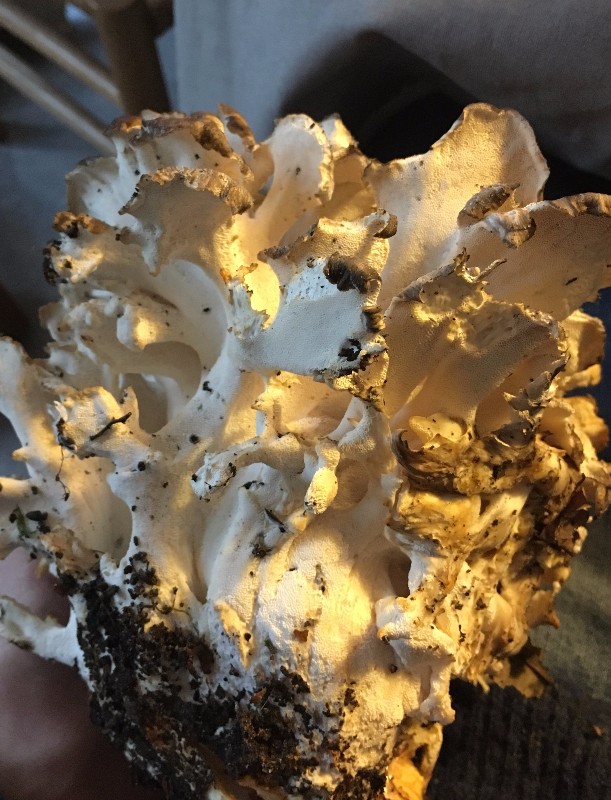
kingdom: Fungi
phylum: Basidiomycota
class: Agaricomycetes
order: Polyporales
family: Grifolaceae
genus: Grifola
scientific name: Grifola frondosa
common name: tueporesvamp
